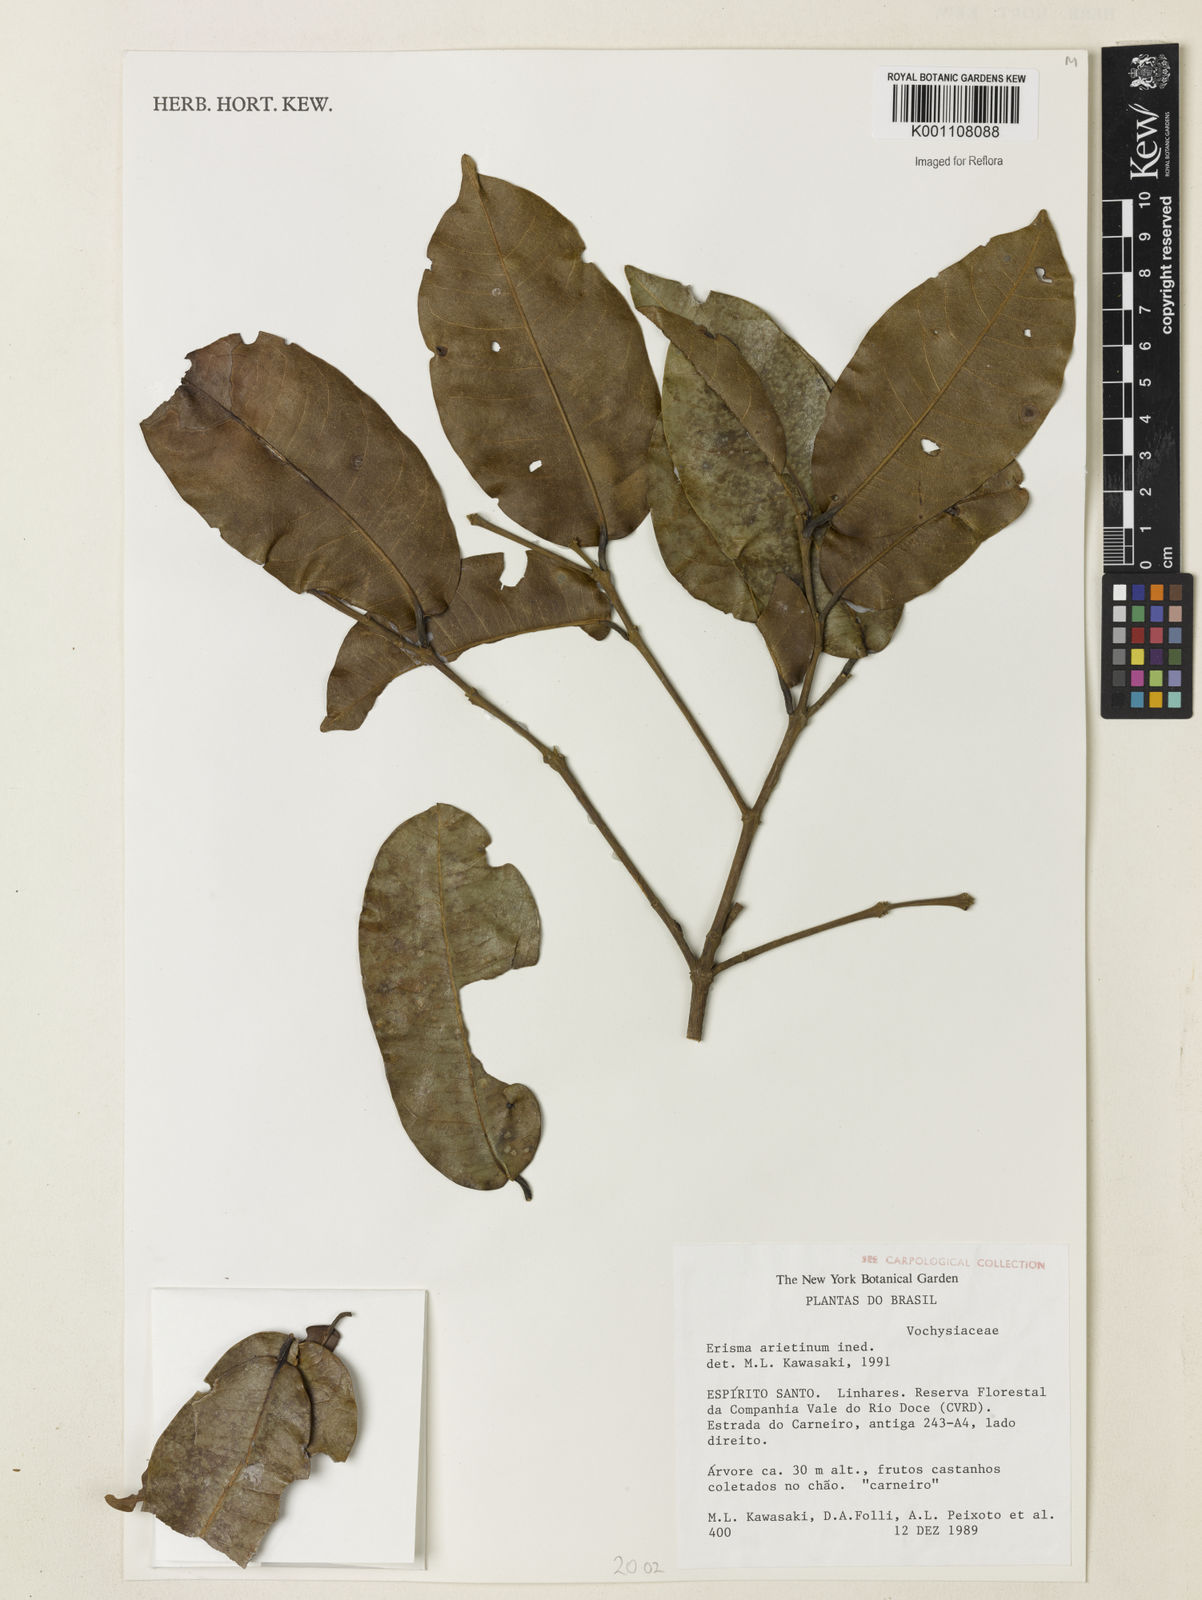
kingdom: Plantae
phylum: Tracheophyta
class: Magnoliopsida
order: Myrtales
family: Vochysiaceae
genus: Erisma
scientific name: Erisma arietinum
